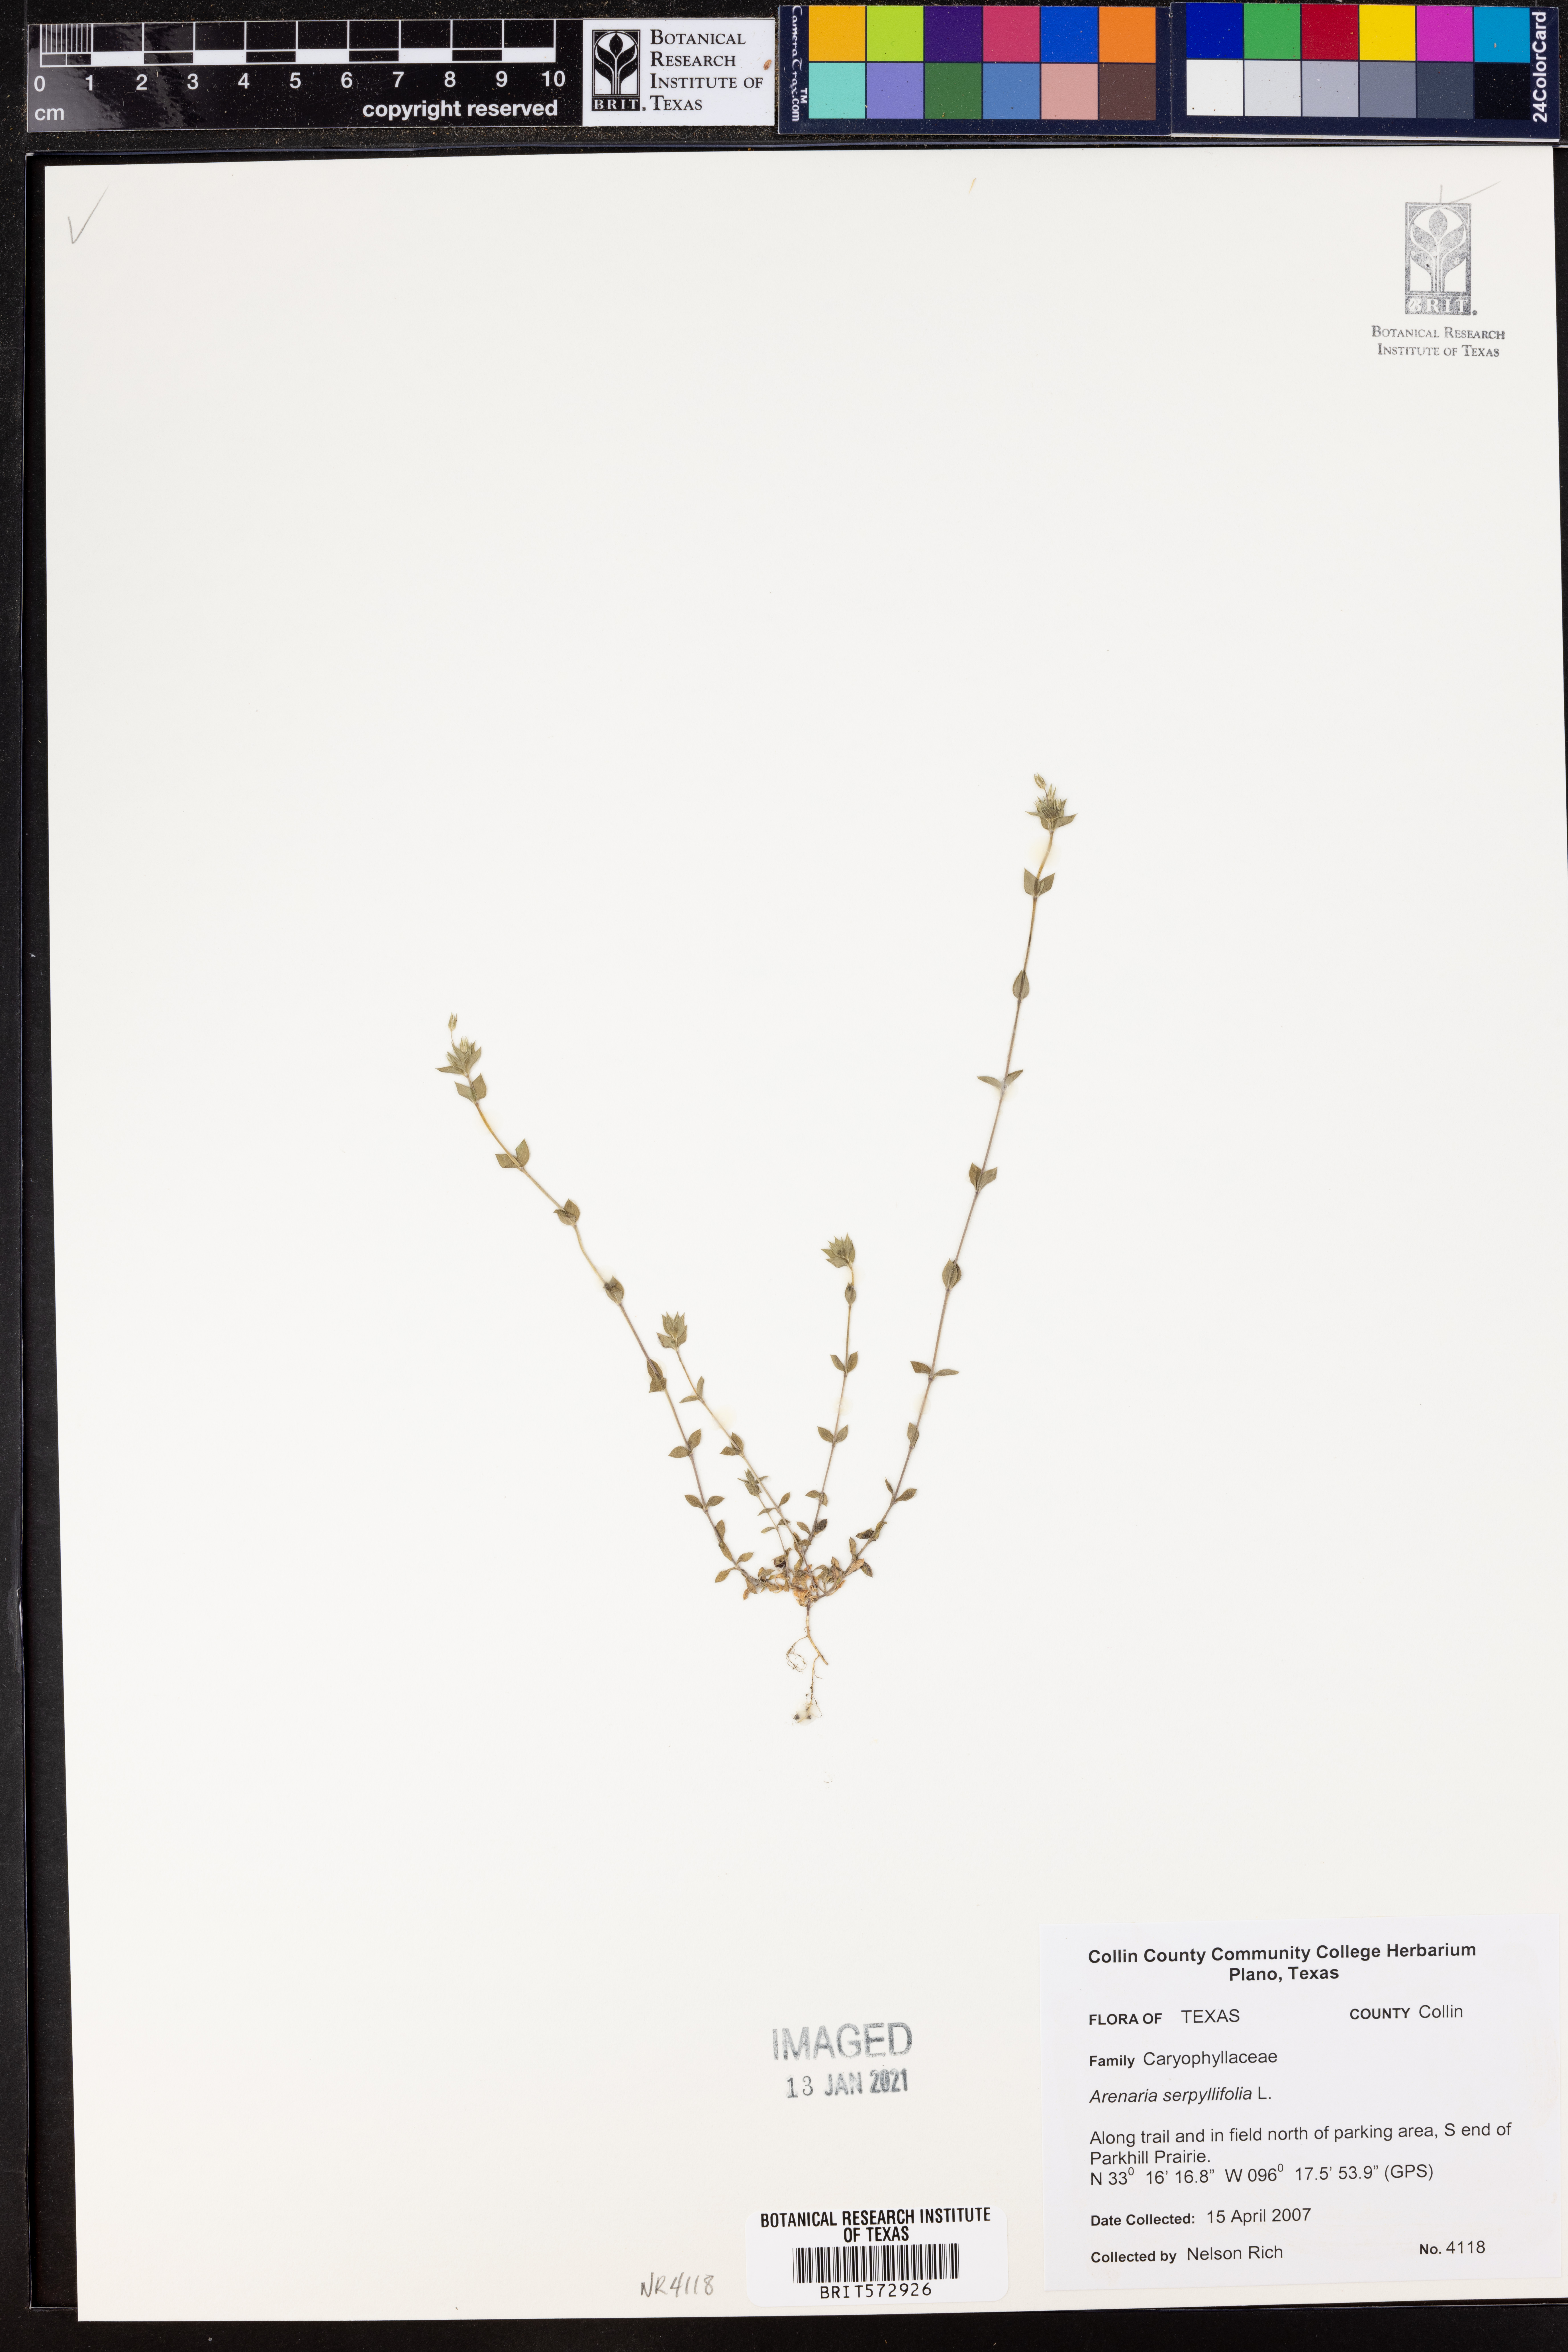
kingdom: Plantae
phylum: Tracheophyta
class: Magnoliopsida
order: Caryophyllales
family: Caryophyllaceae
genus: Arenaria
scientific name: Arenaria serpyllifolia
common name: Thyme-leaved sandwort
